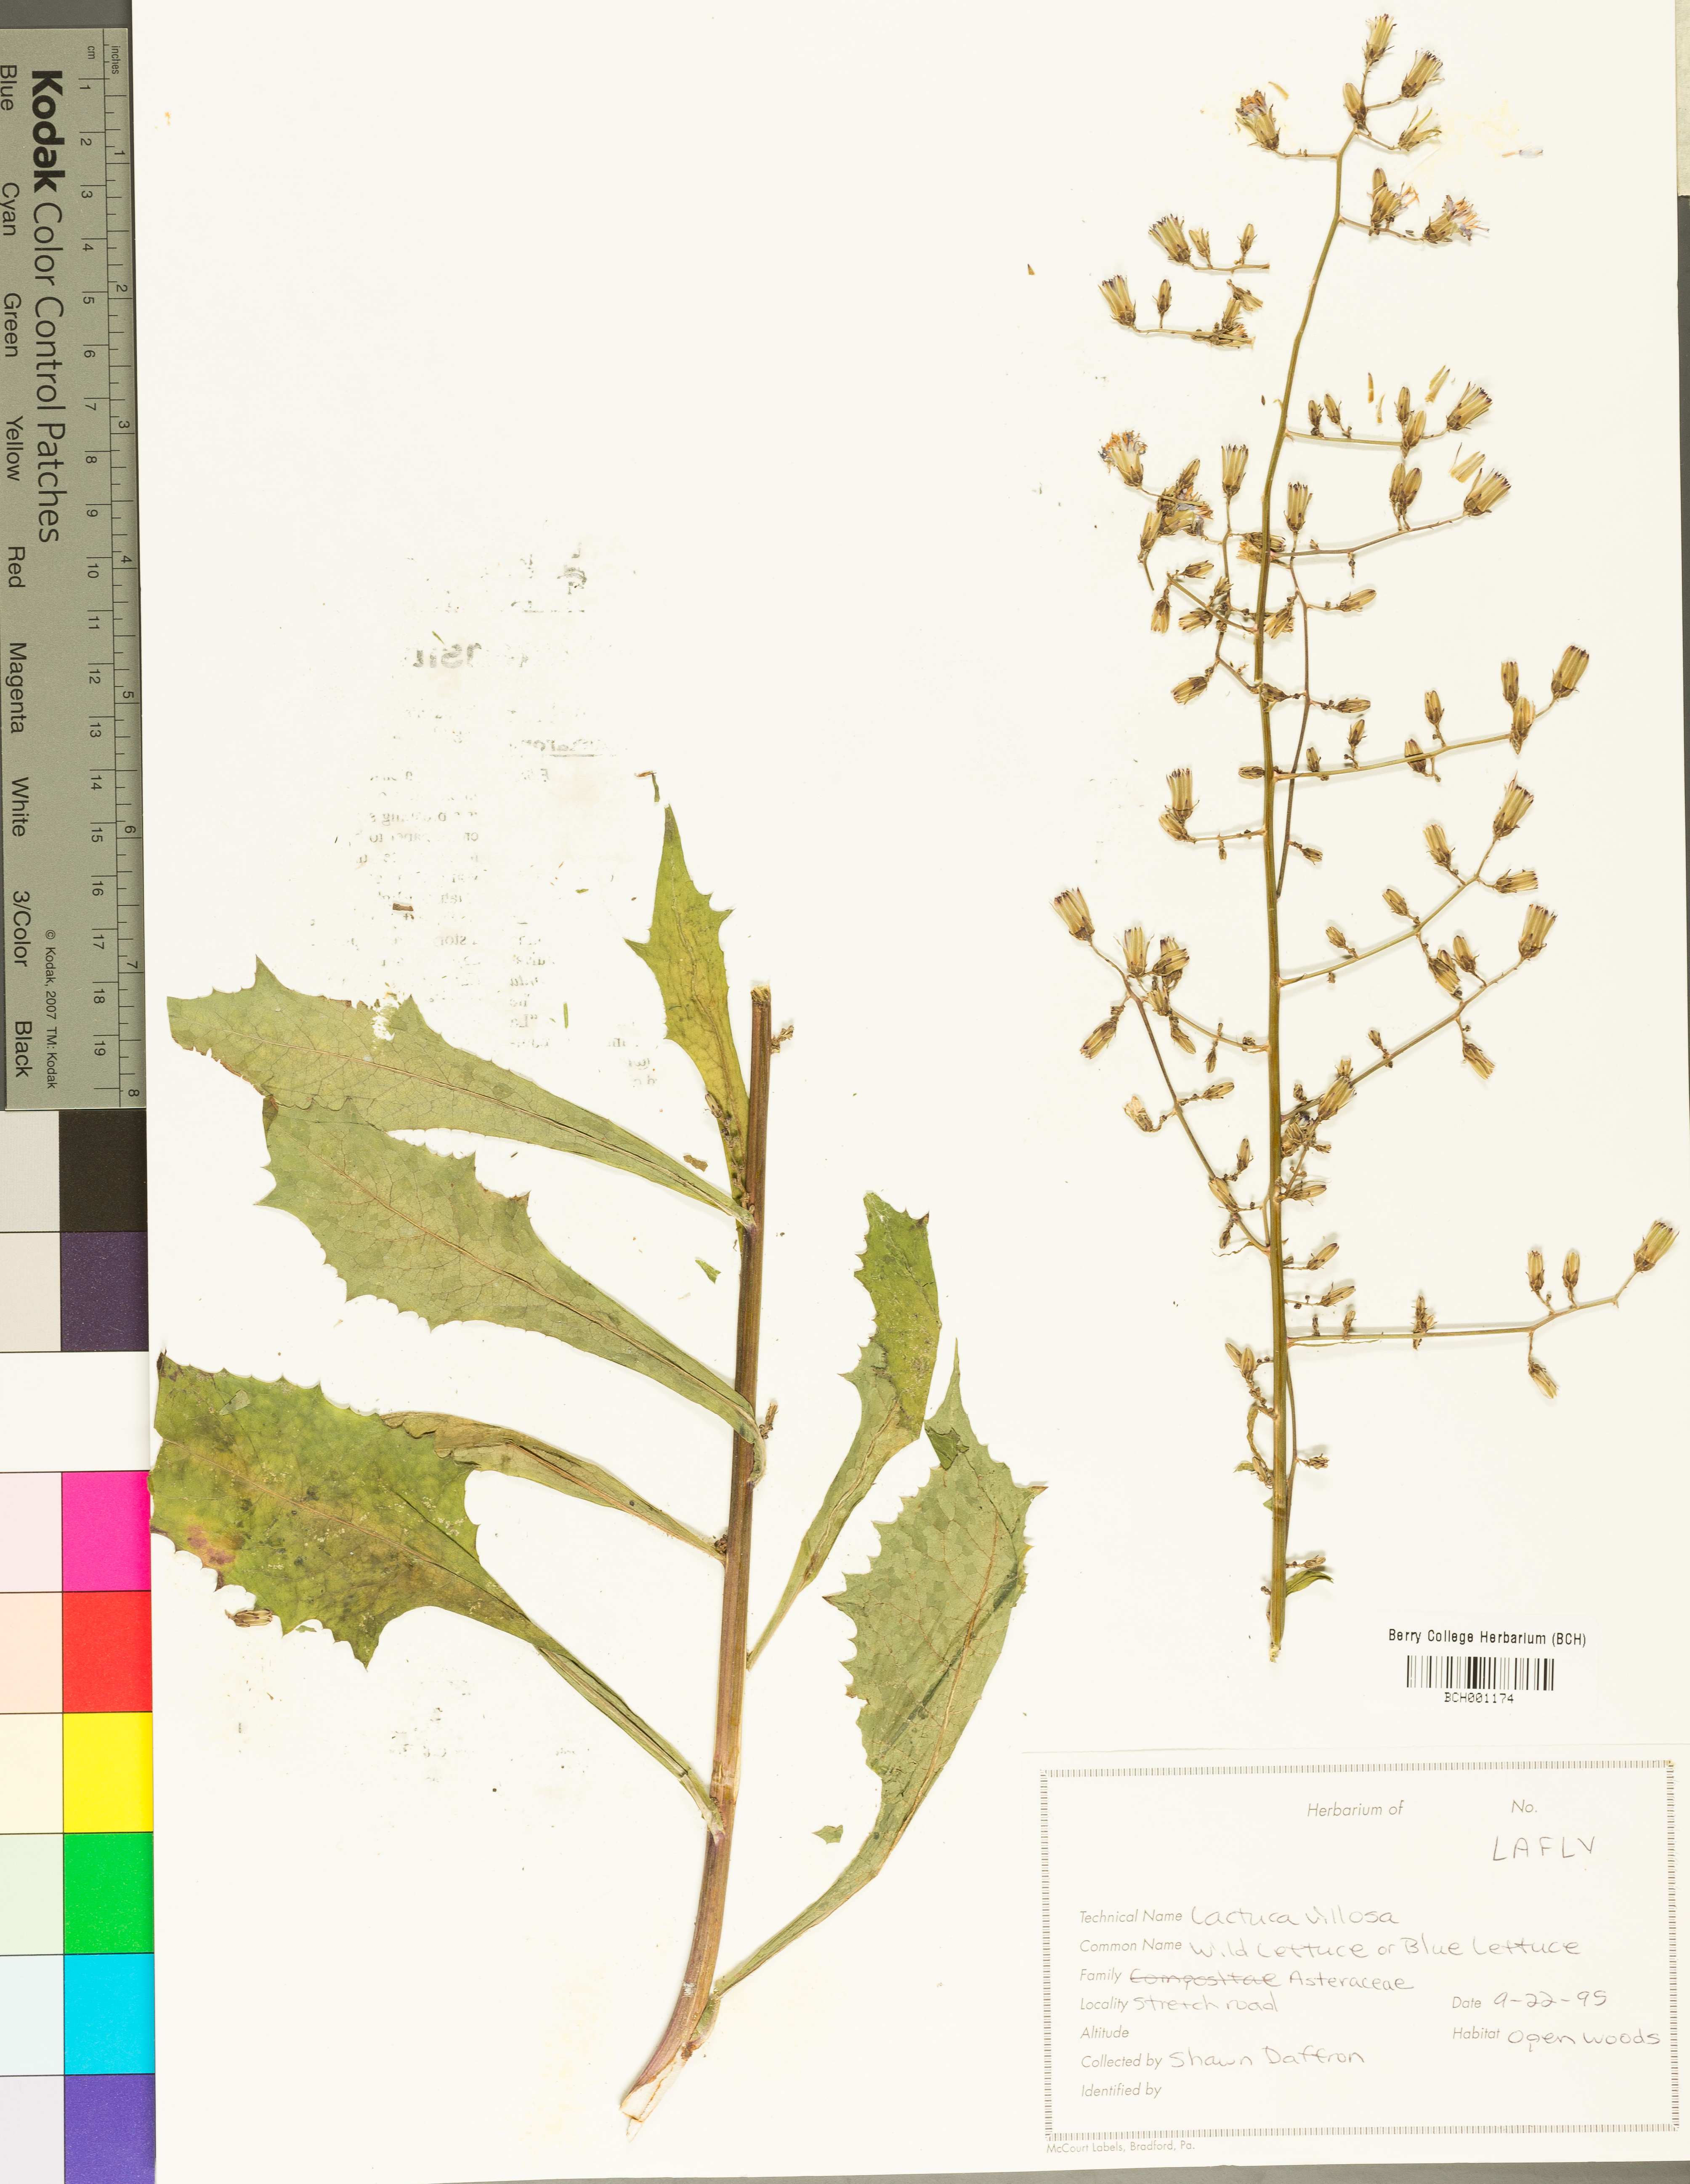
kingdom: Plantae
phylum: Tracheophyta
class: Magnoliopsida
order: Asterales
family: Asteraceae
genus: Lactuca
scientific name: Lactuca floridana
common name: Woodland lettuce
